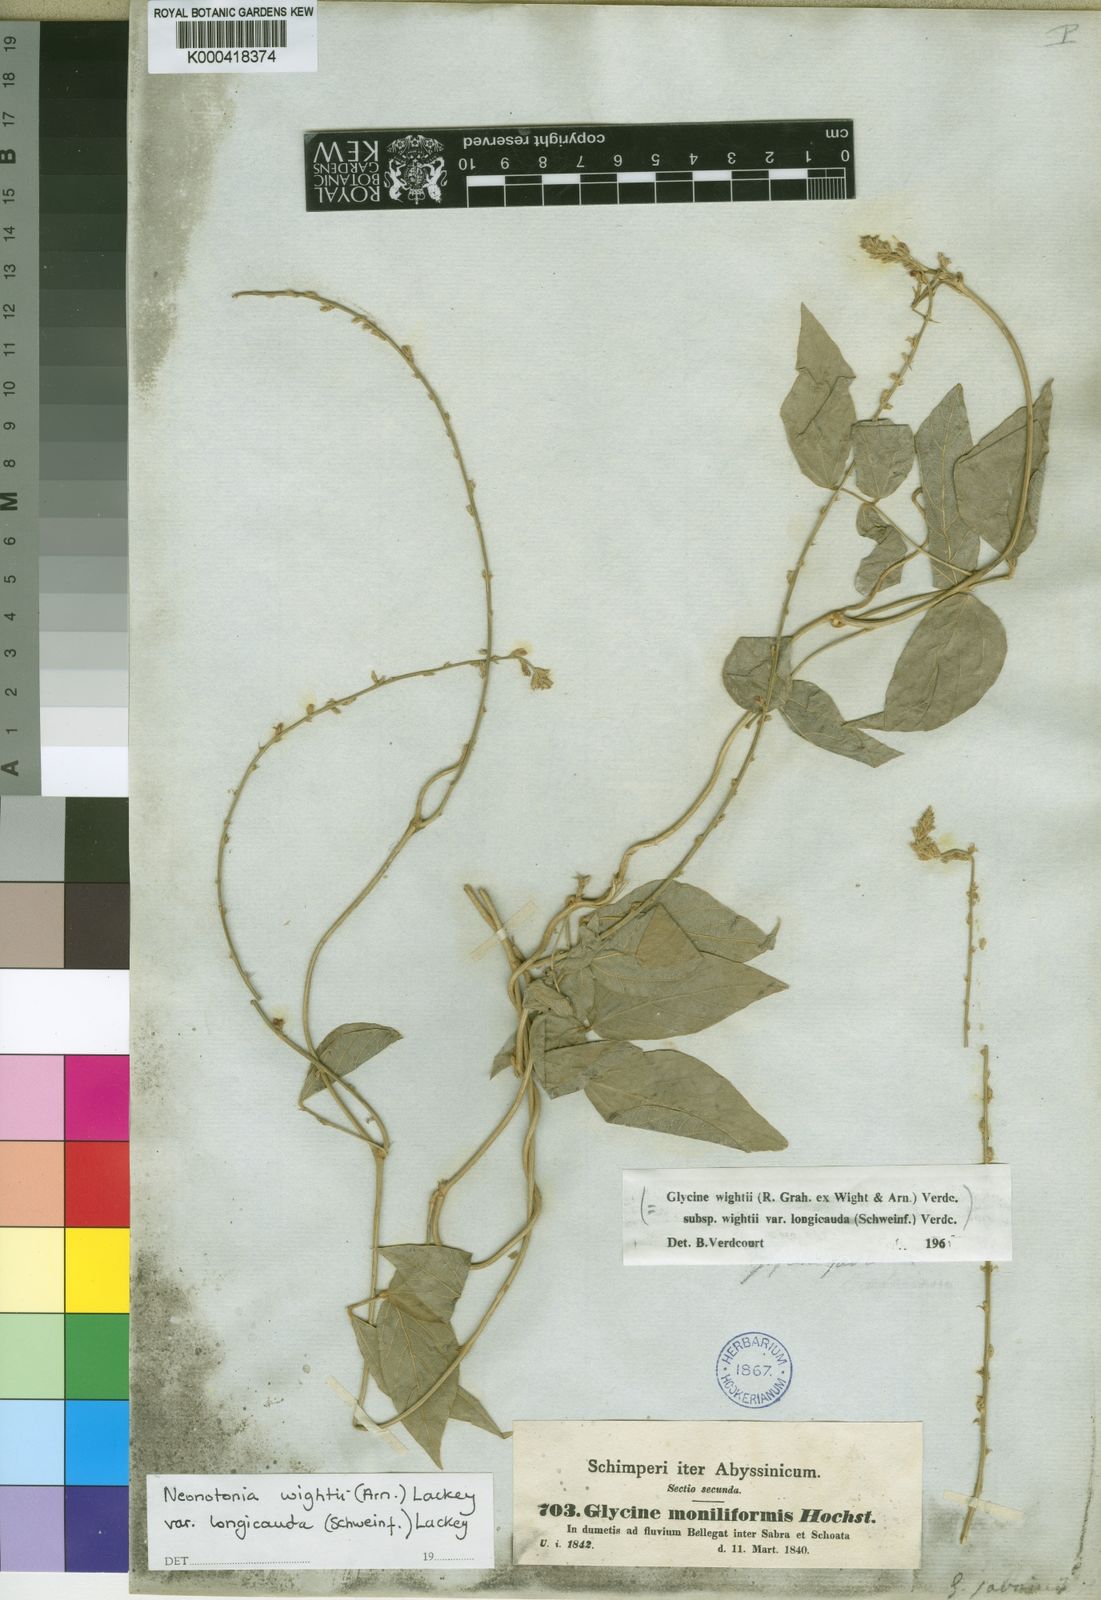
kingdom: Plantae
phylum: Tracheophyta
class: Magnoliopsida
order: Fabales
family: Fabaceae
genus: Neonotonia
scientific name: Neonotonia wightii
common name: Perennial soybean
